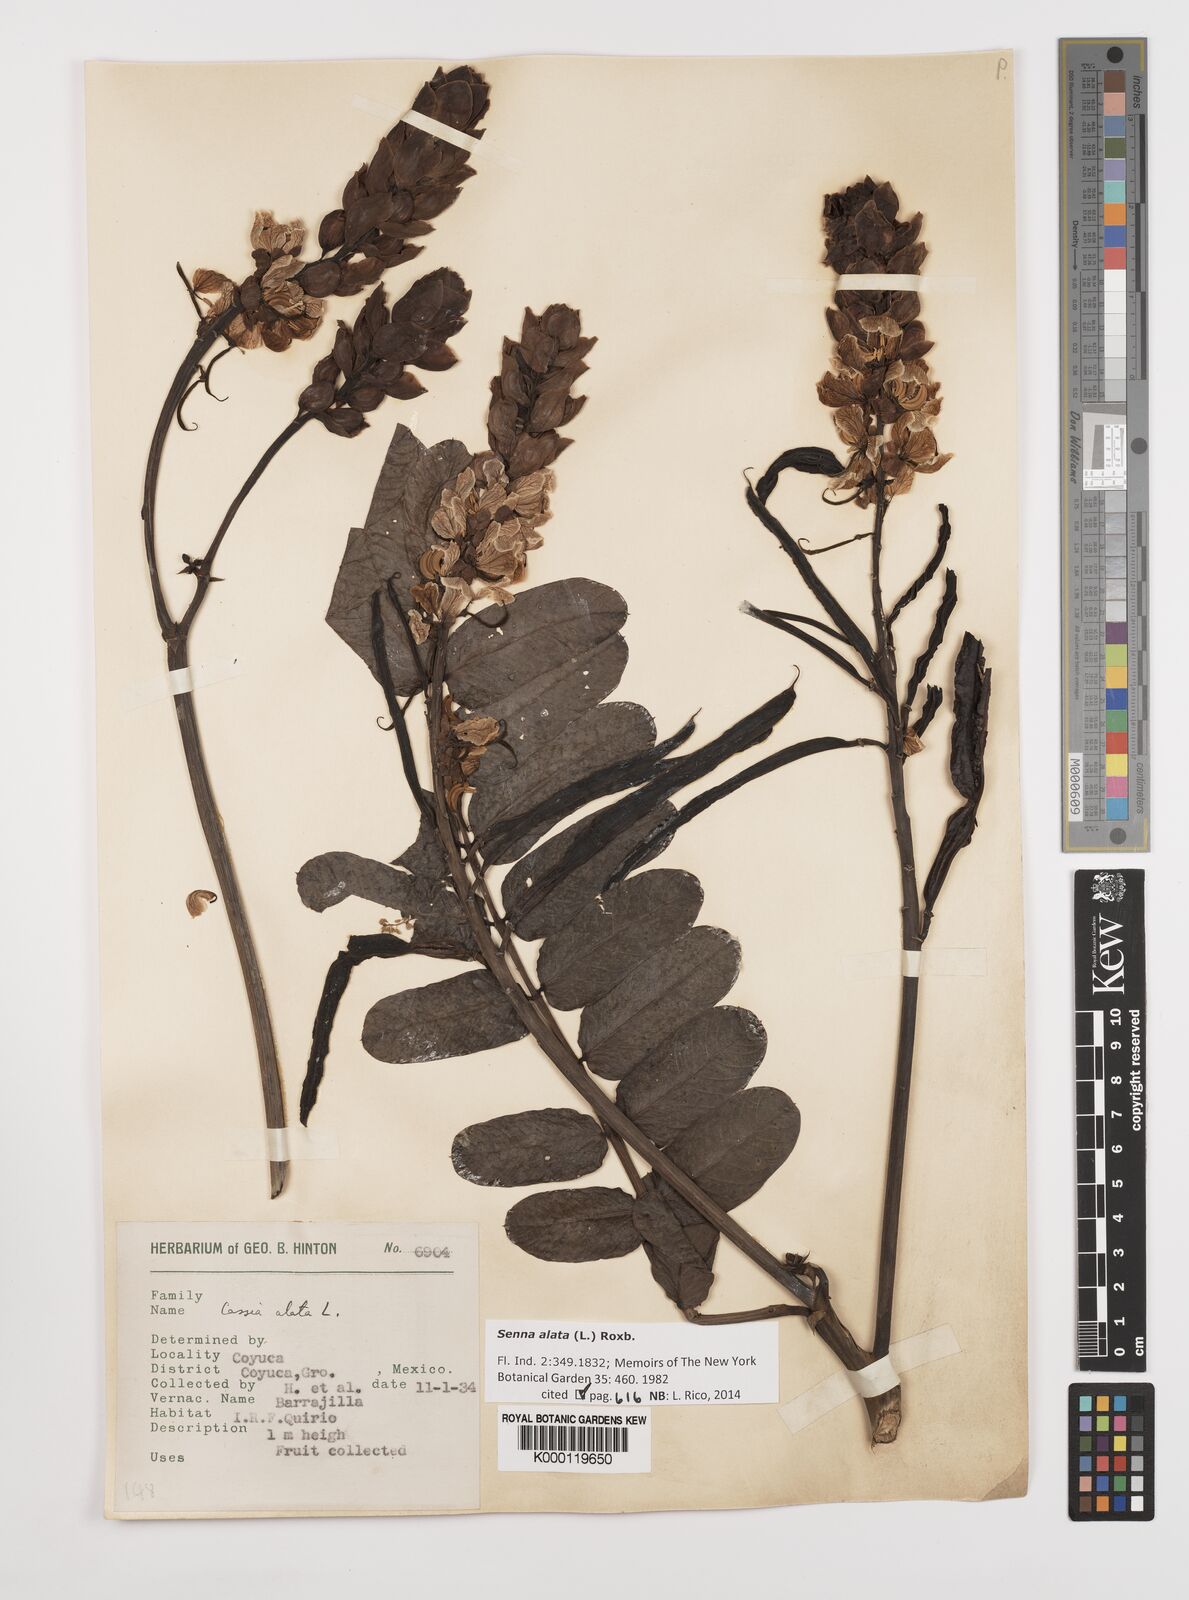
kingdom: Plantae
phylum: Tracheophyta
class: Magnoliopsida
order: Fabales
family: Fabaceae
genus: Senna
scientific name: Senna alata
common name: Emperor's candlesticks
